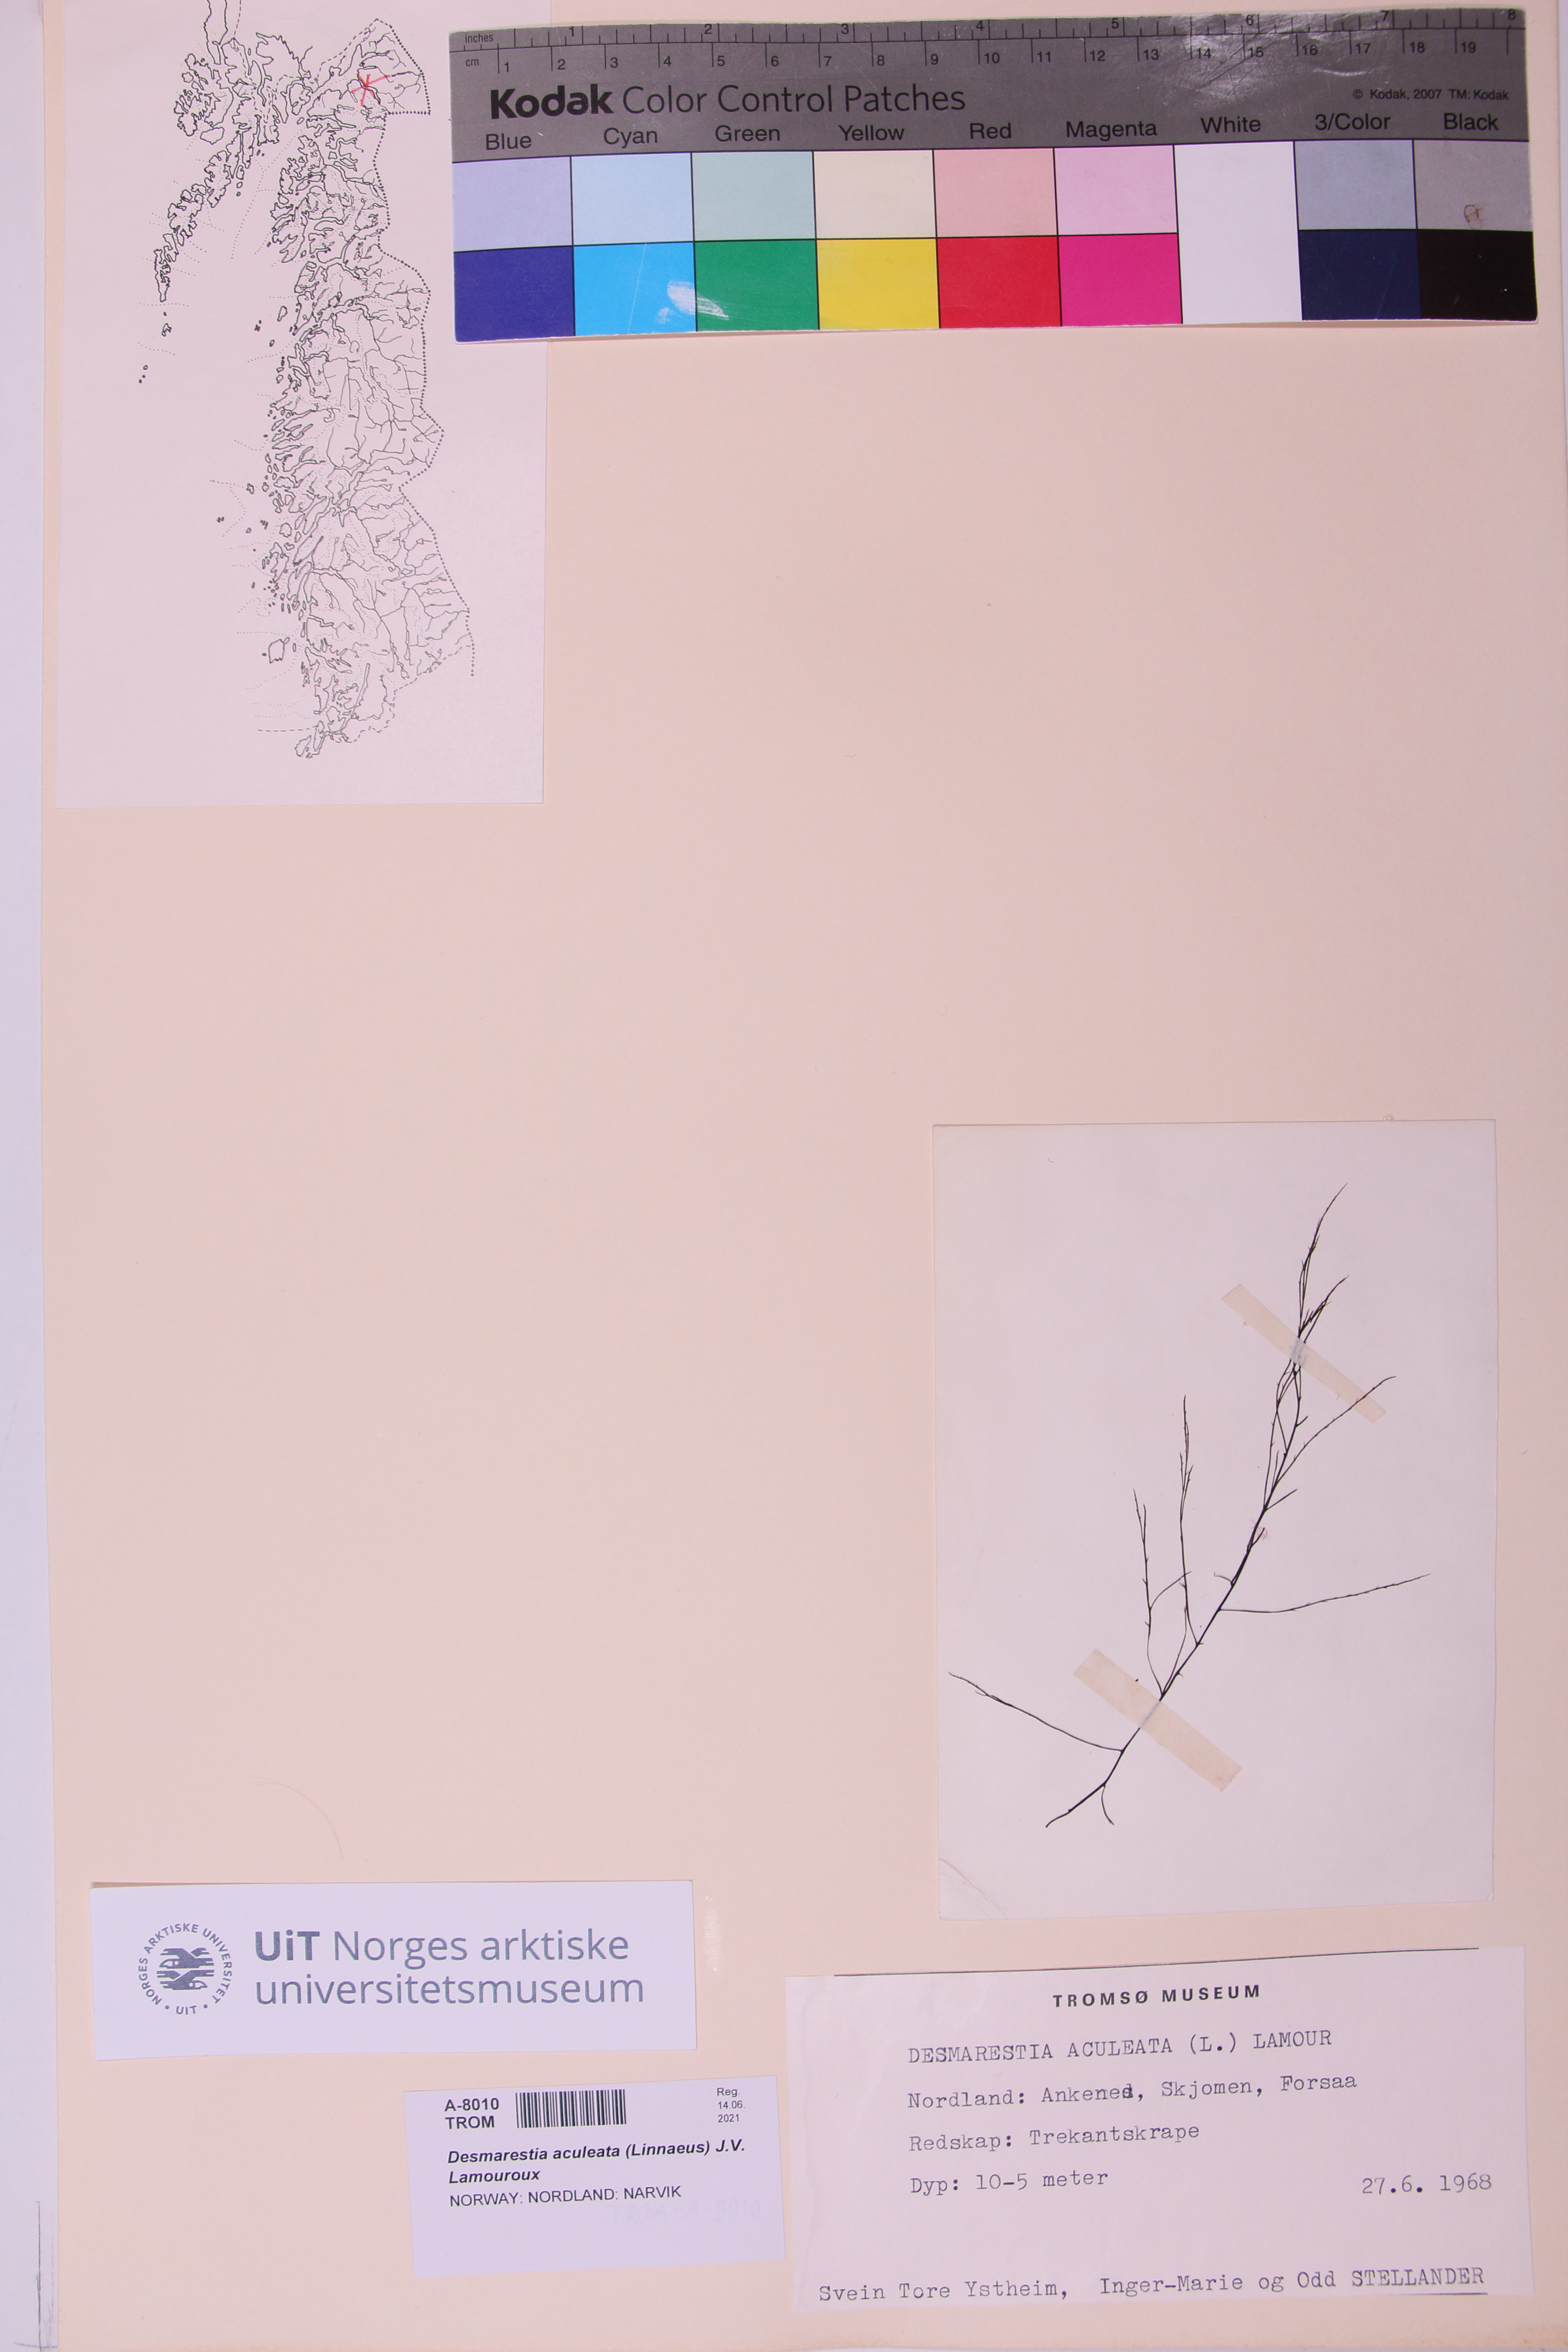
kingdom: Chromista
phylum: Ochrophyta
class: Phaeophyceae
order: Desmarestiales
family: Desmarestiaceae
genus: Desmarestia
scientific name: Desmarestia aculeata
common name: Witch's hair
